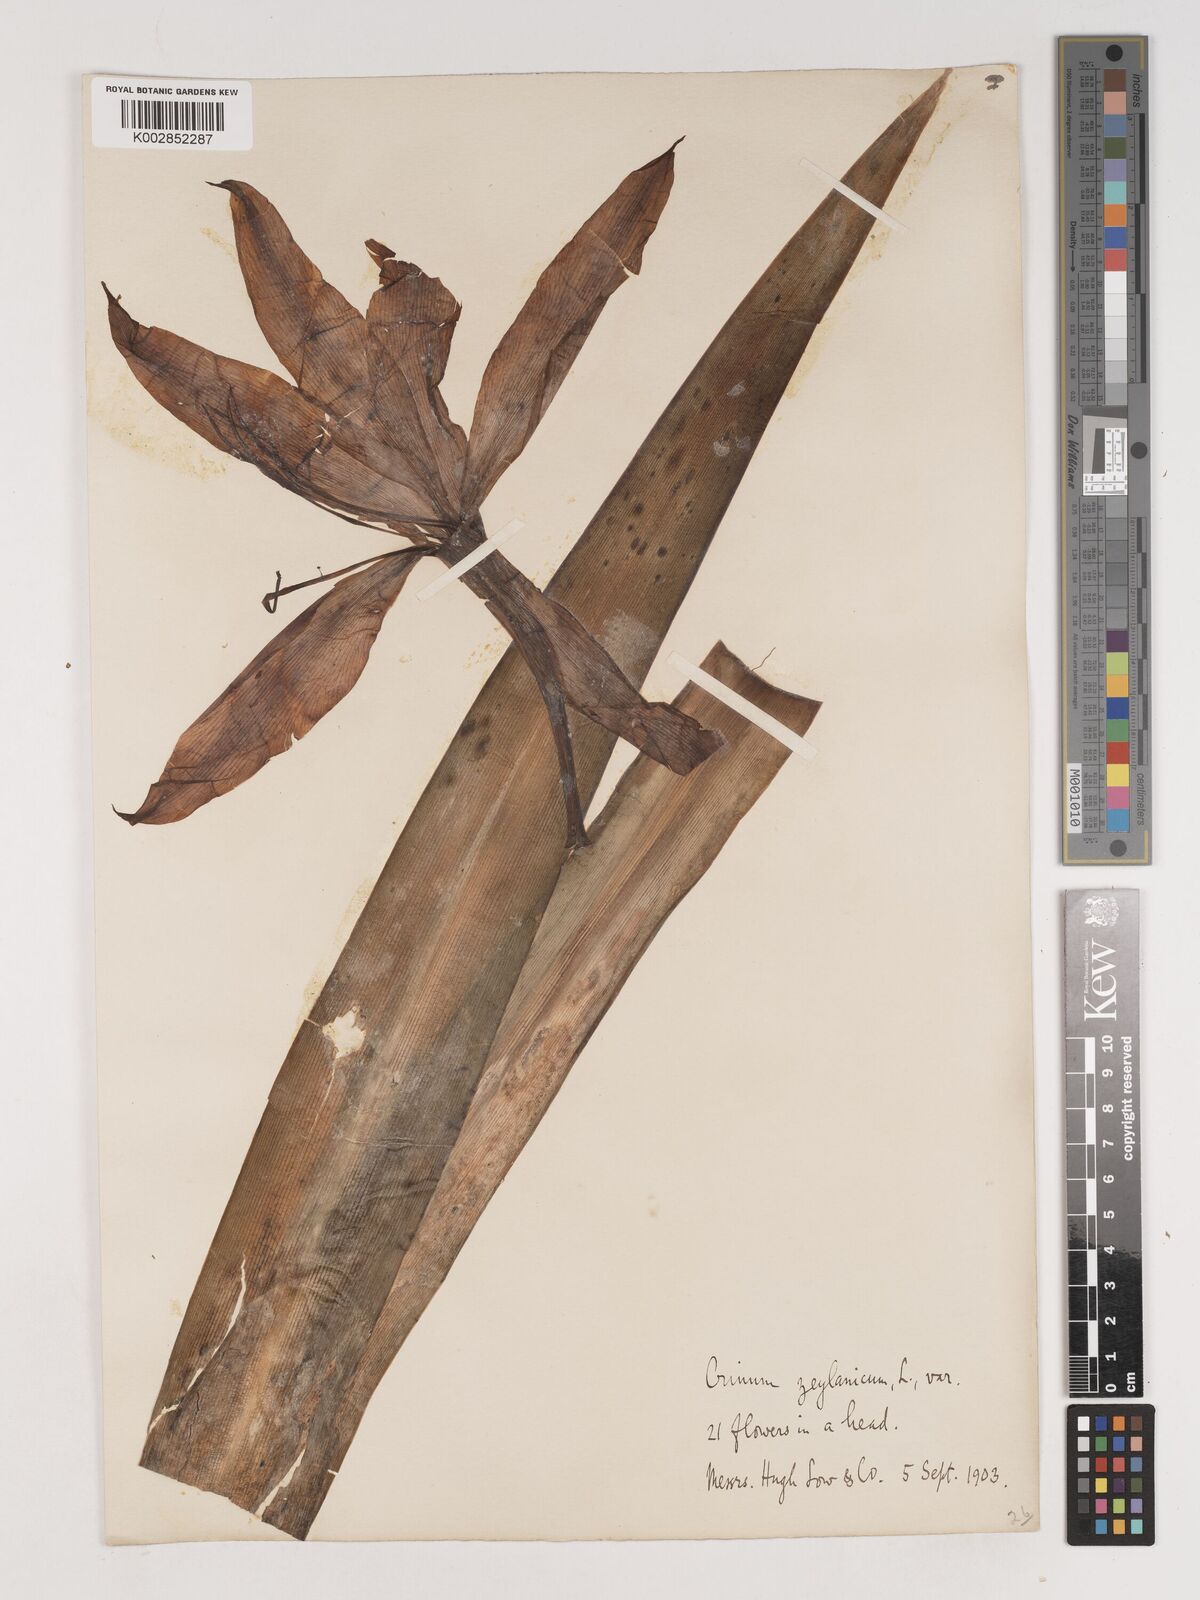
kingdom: Plantae
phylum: Tracheophyta
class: Liliopsida
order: Asparagales
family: Amaryllidaceae
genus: Crinum
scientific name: Crinum
